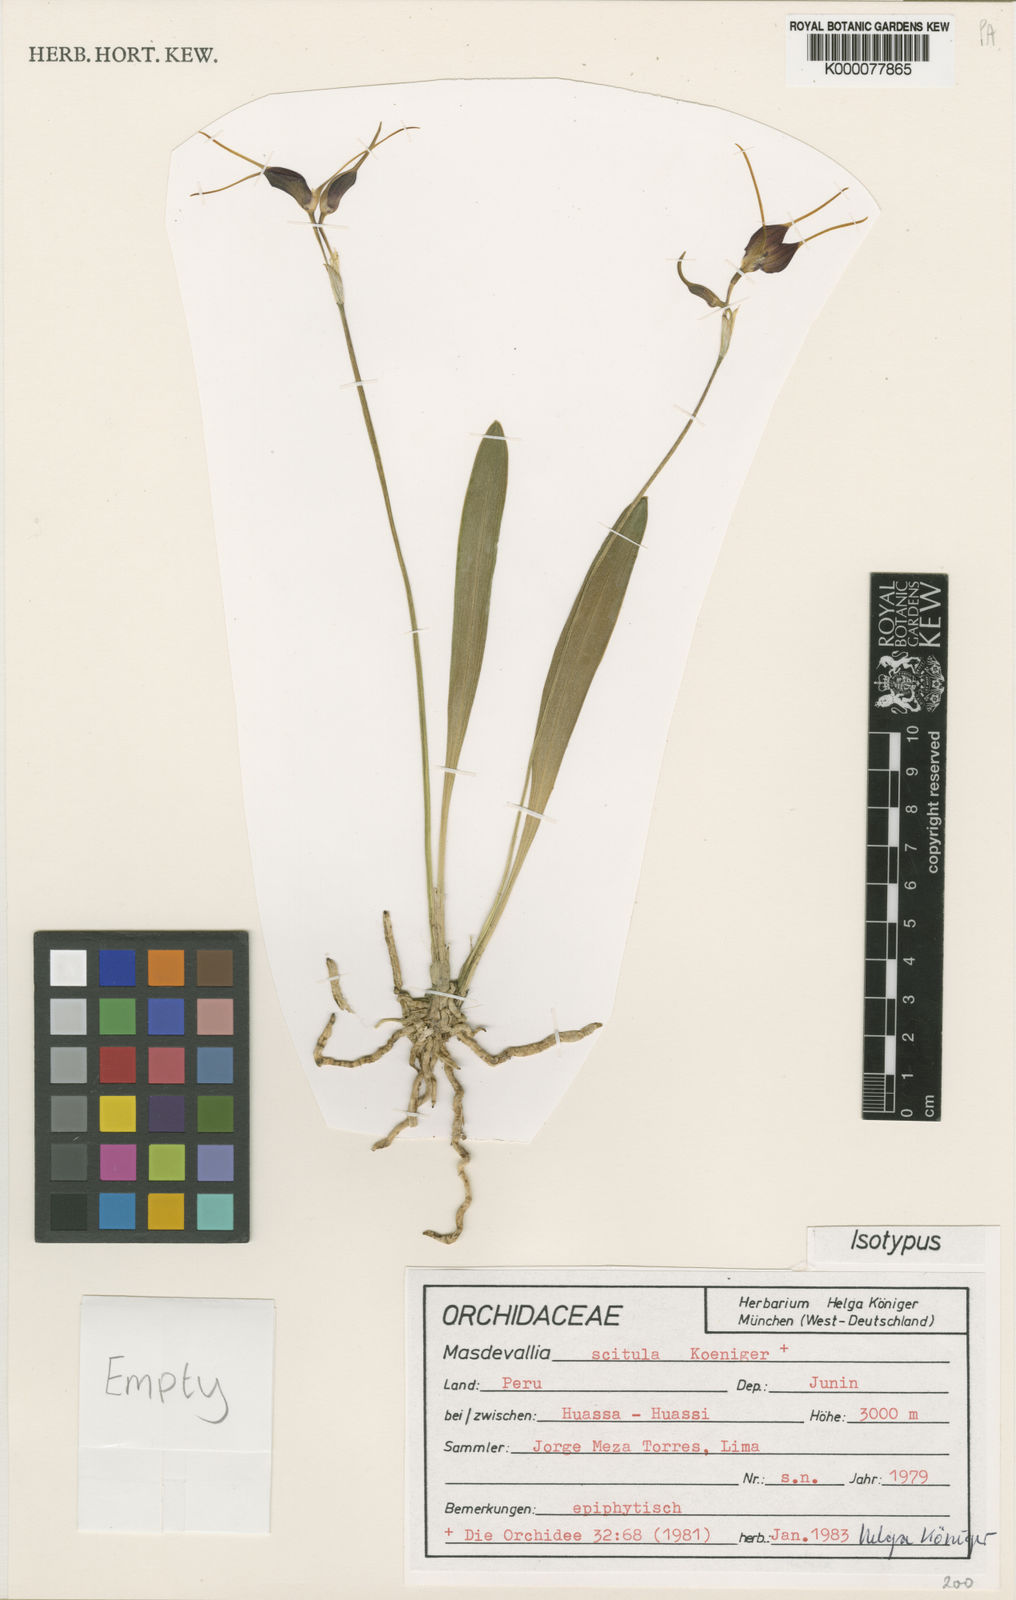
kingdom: Plantae
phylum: Tracheophyta
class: Liliopsida
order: Asparagales
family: Orchidaceae
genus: Masdevallia
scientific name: Masdevallia
